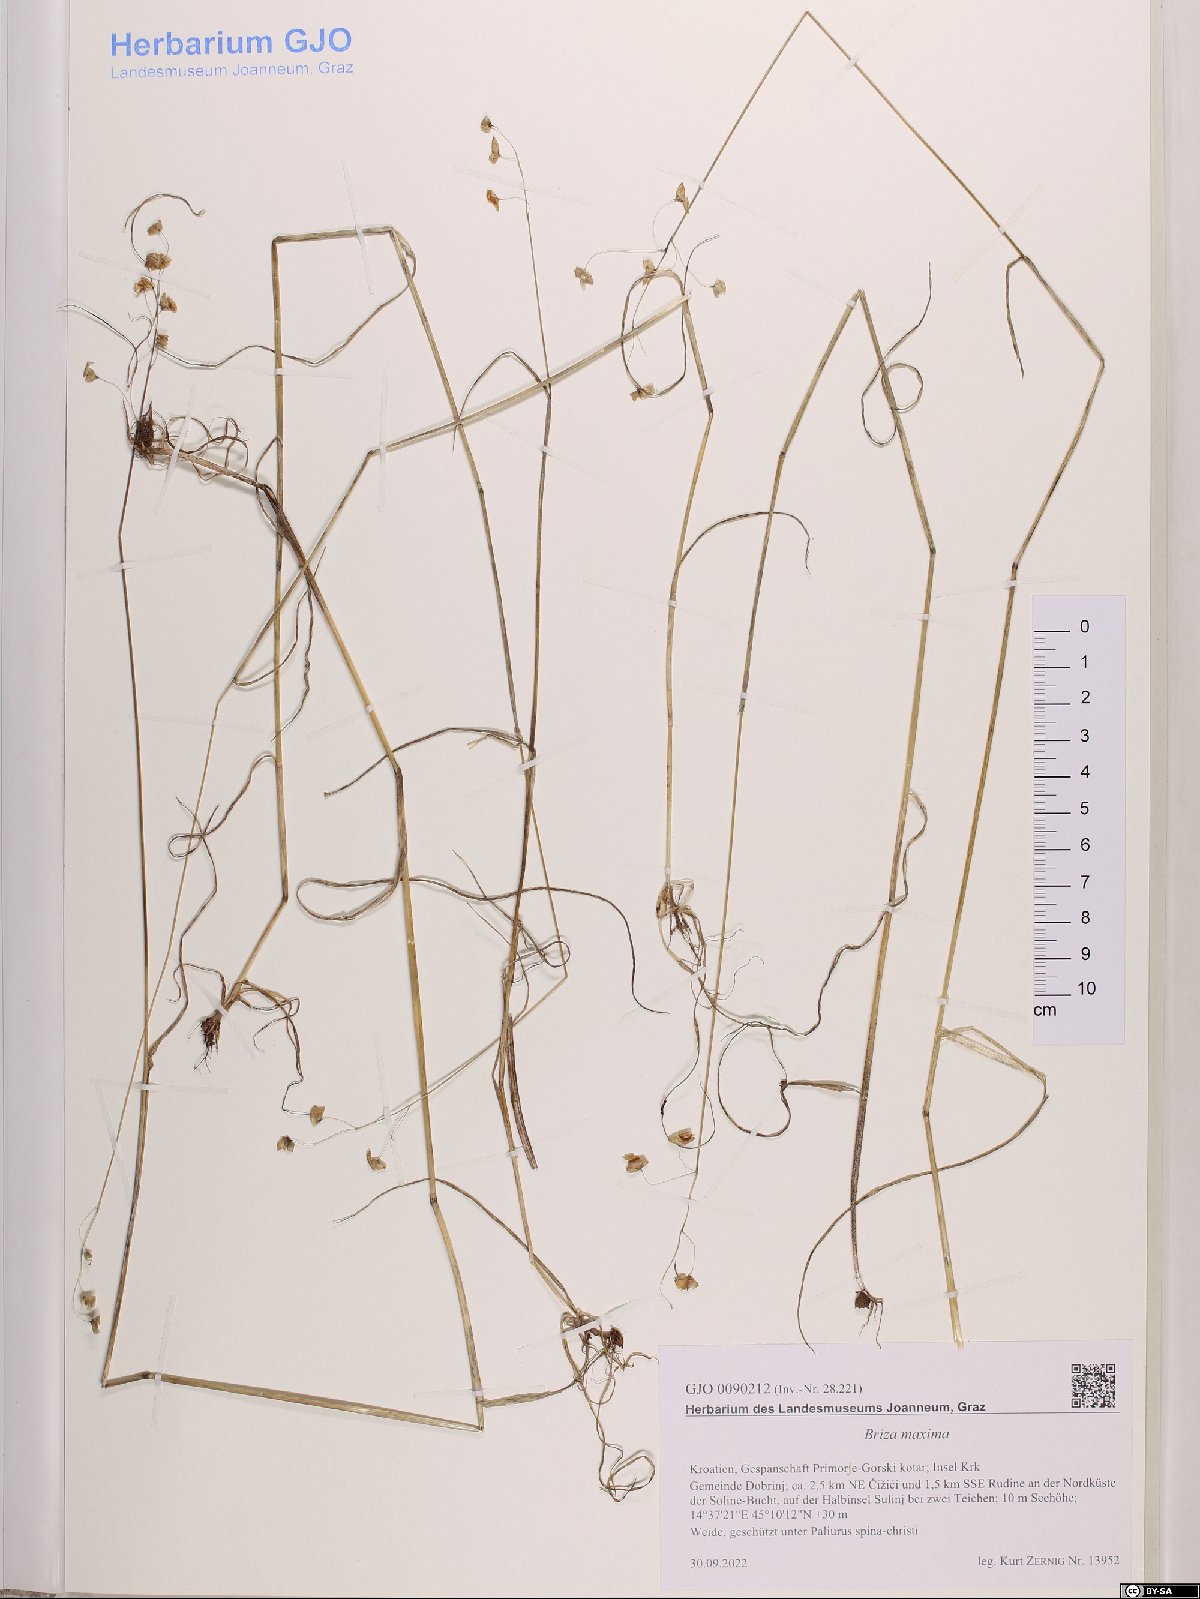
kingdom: Plantae
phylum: Tracheophyta
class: Liliopsida
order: Poales
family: Poaceae
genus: Briza
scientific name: Briza maxima
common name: Big quakinggrass
